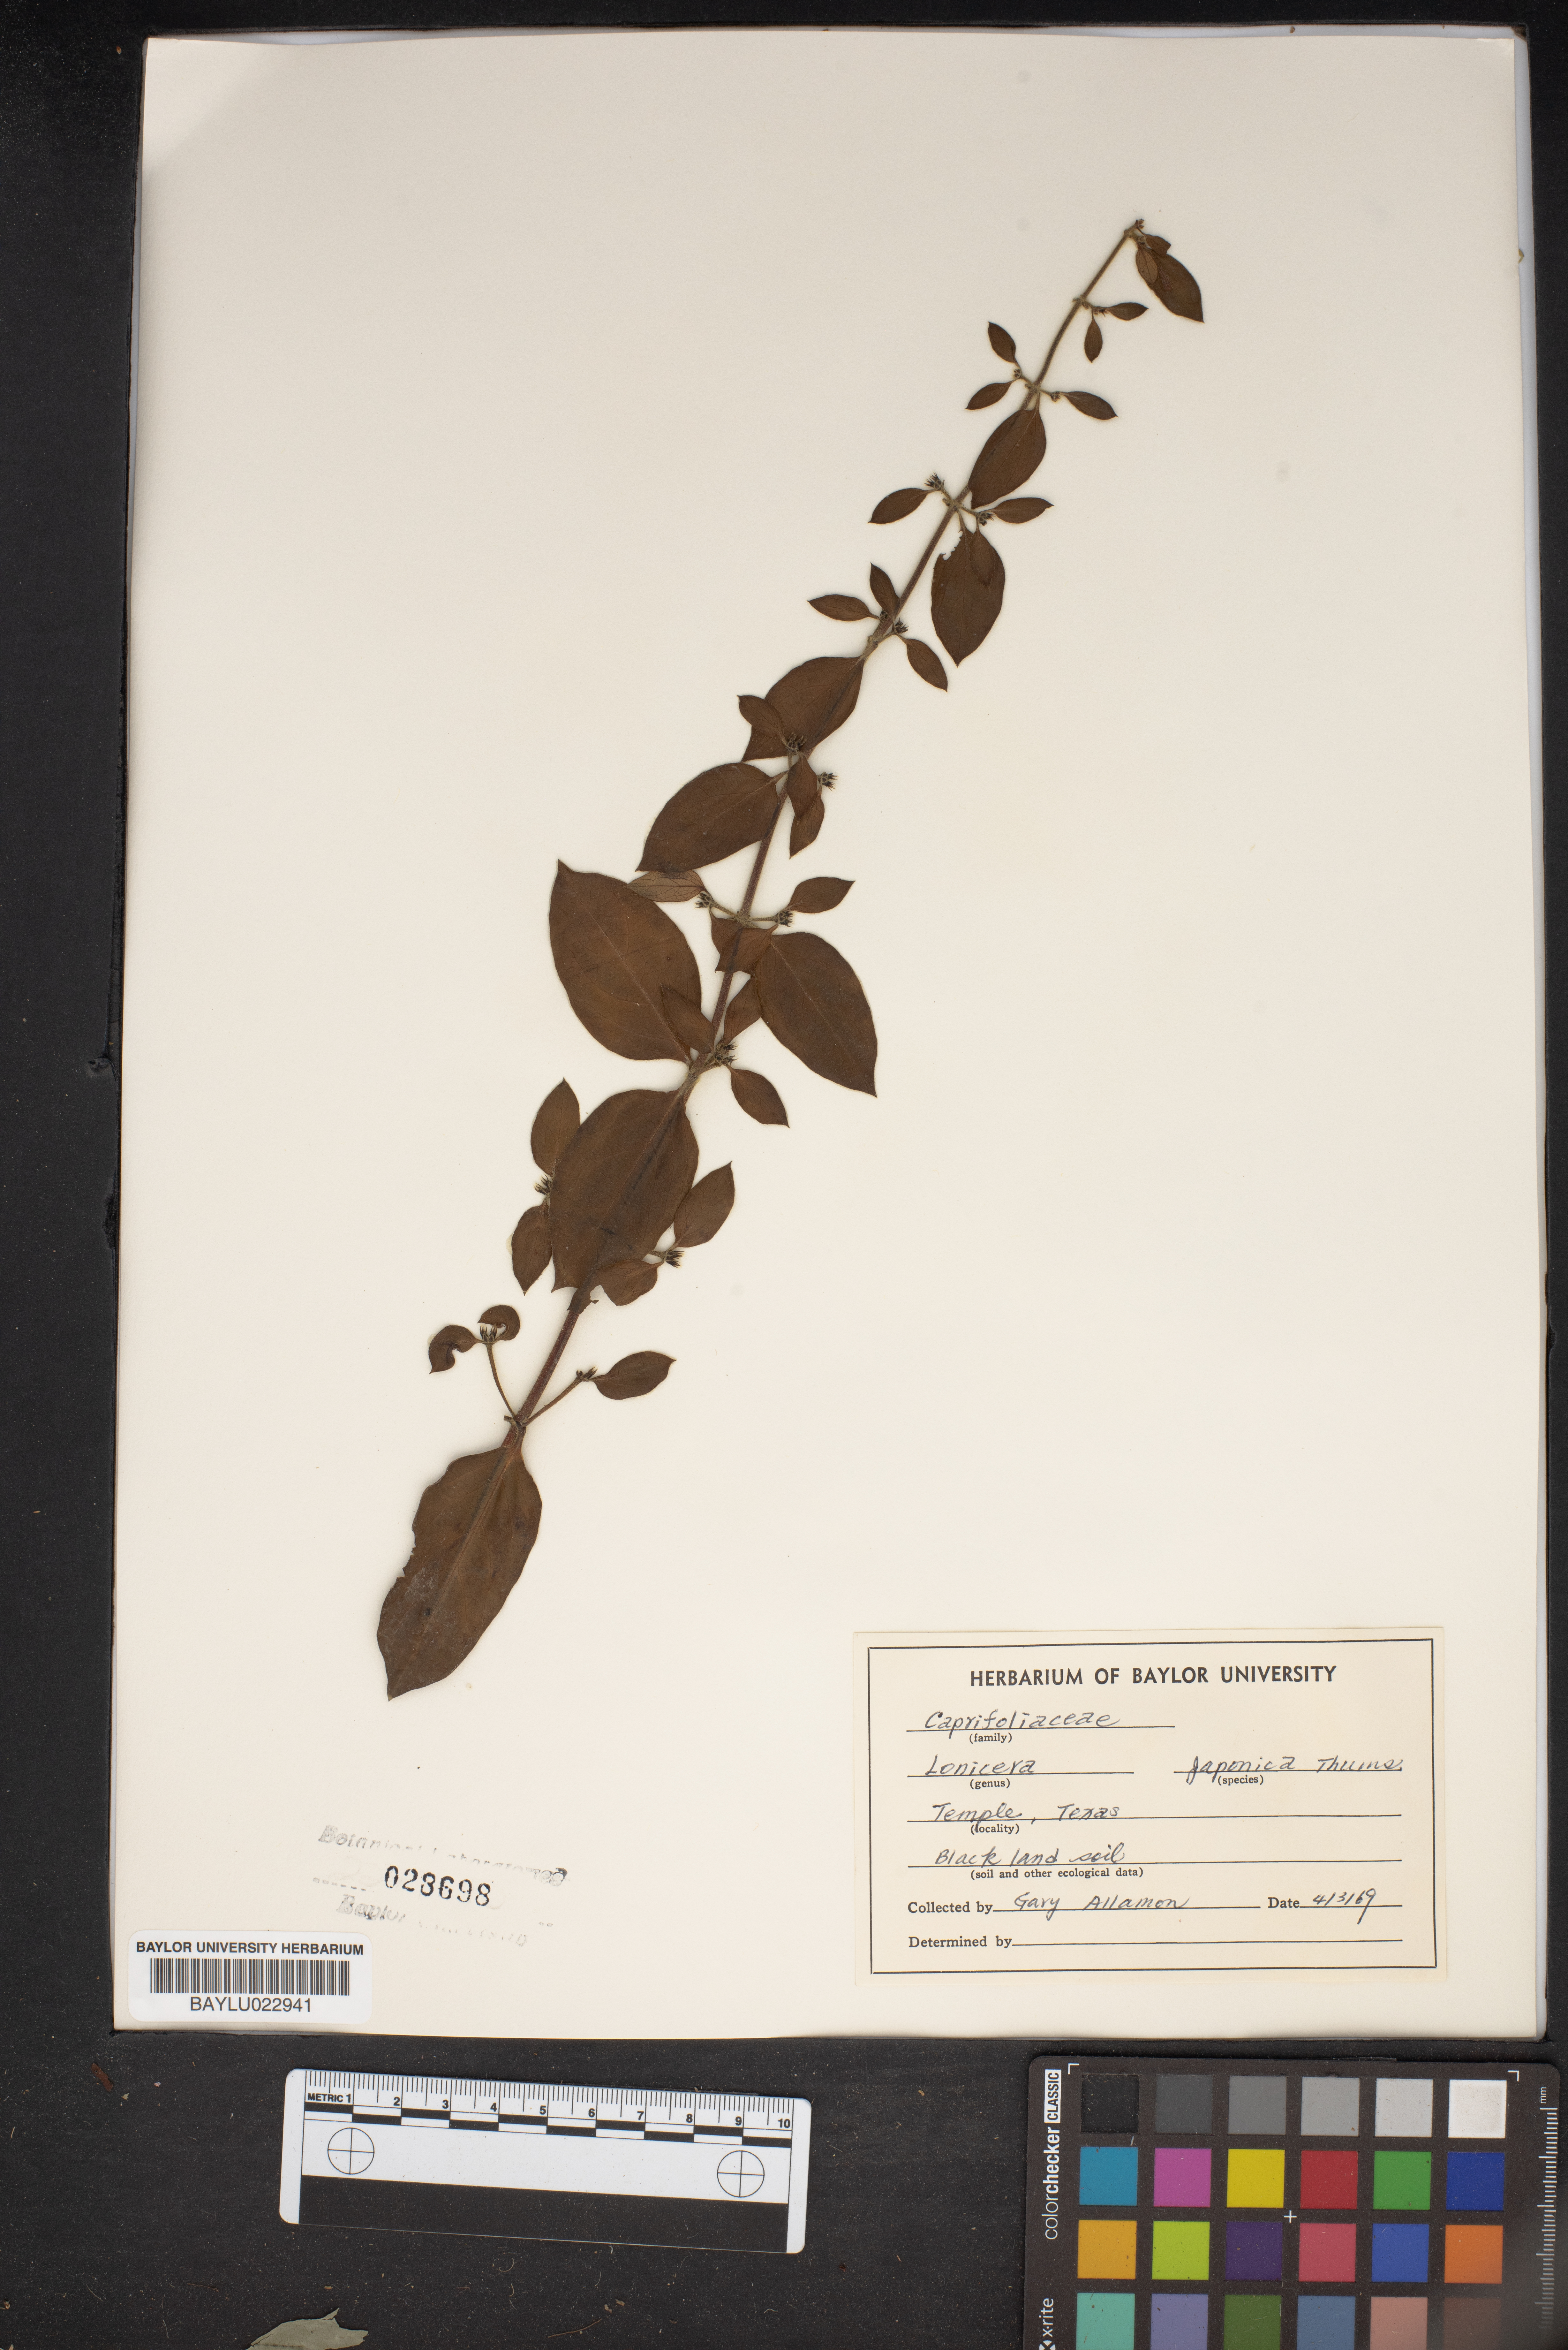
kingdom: Plantae
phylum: Tracheophyta
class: Magnoliopsida
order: Dipsacales
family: Caprifoliaceae
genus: Lonicera
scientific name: Lonicera japonica
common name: Japanese honeysuckle
